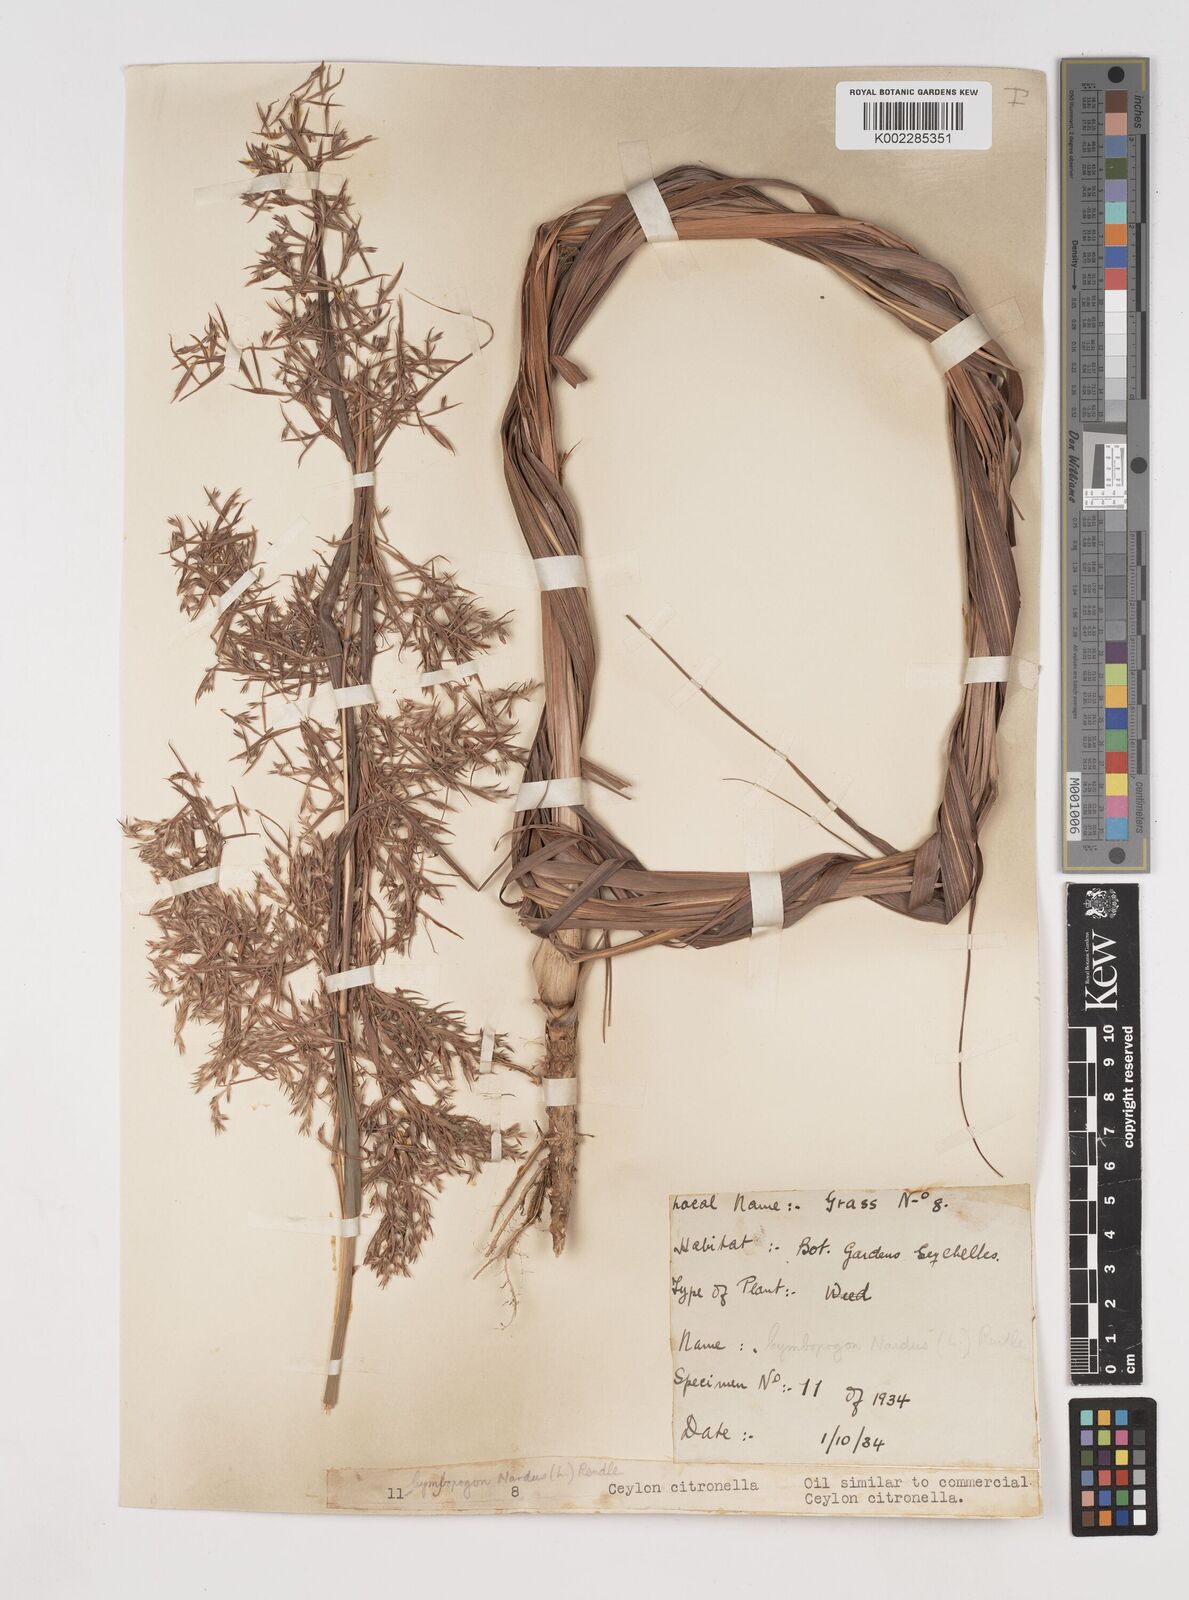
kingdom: Plantae
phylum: Tracheophyta
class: Liliopsida
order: Poales
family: Poaceae
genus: Cymbopogon
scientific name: Cymbopogon nardus
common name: Giant turpentine grass
